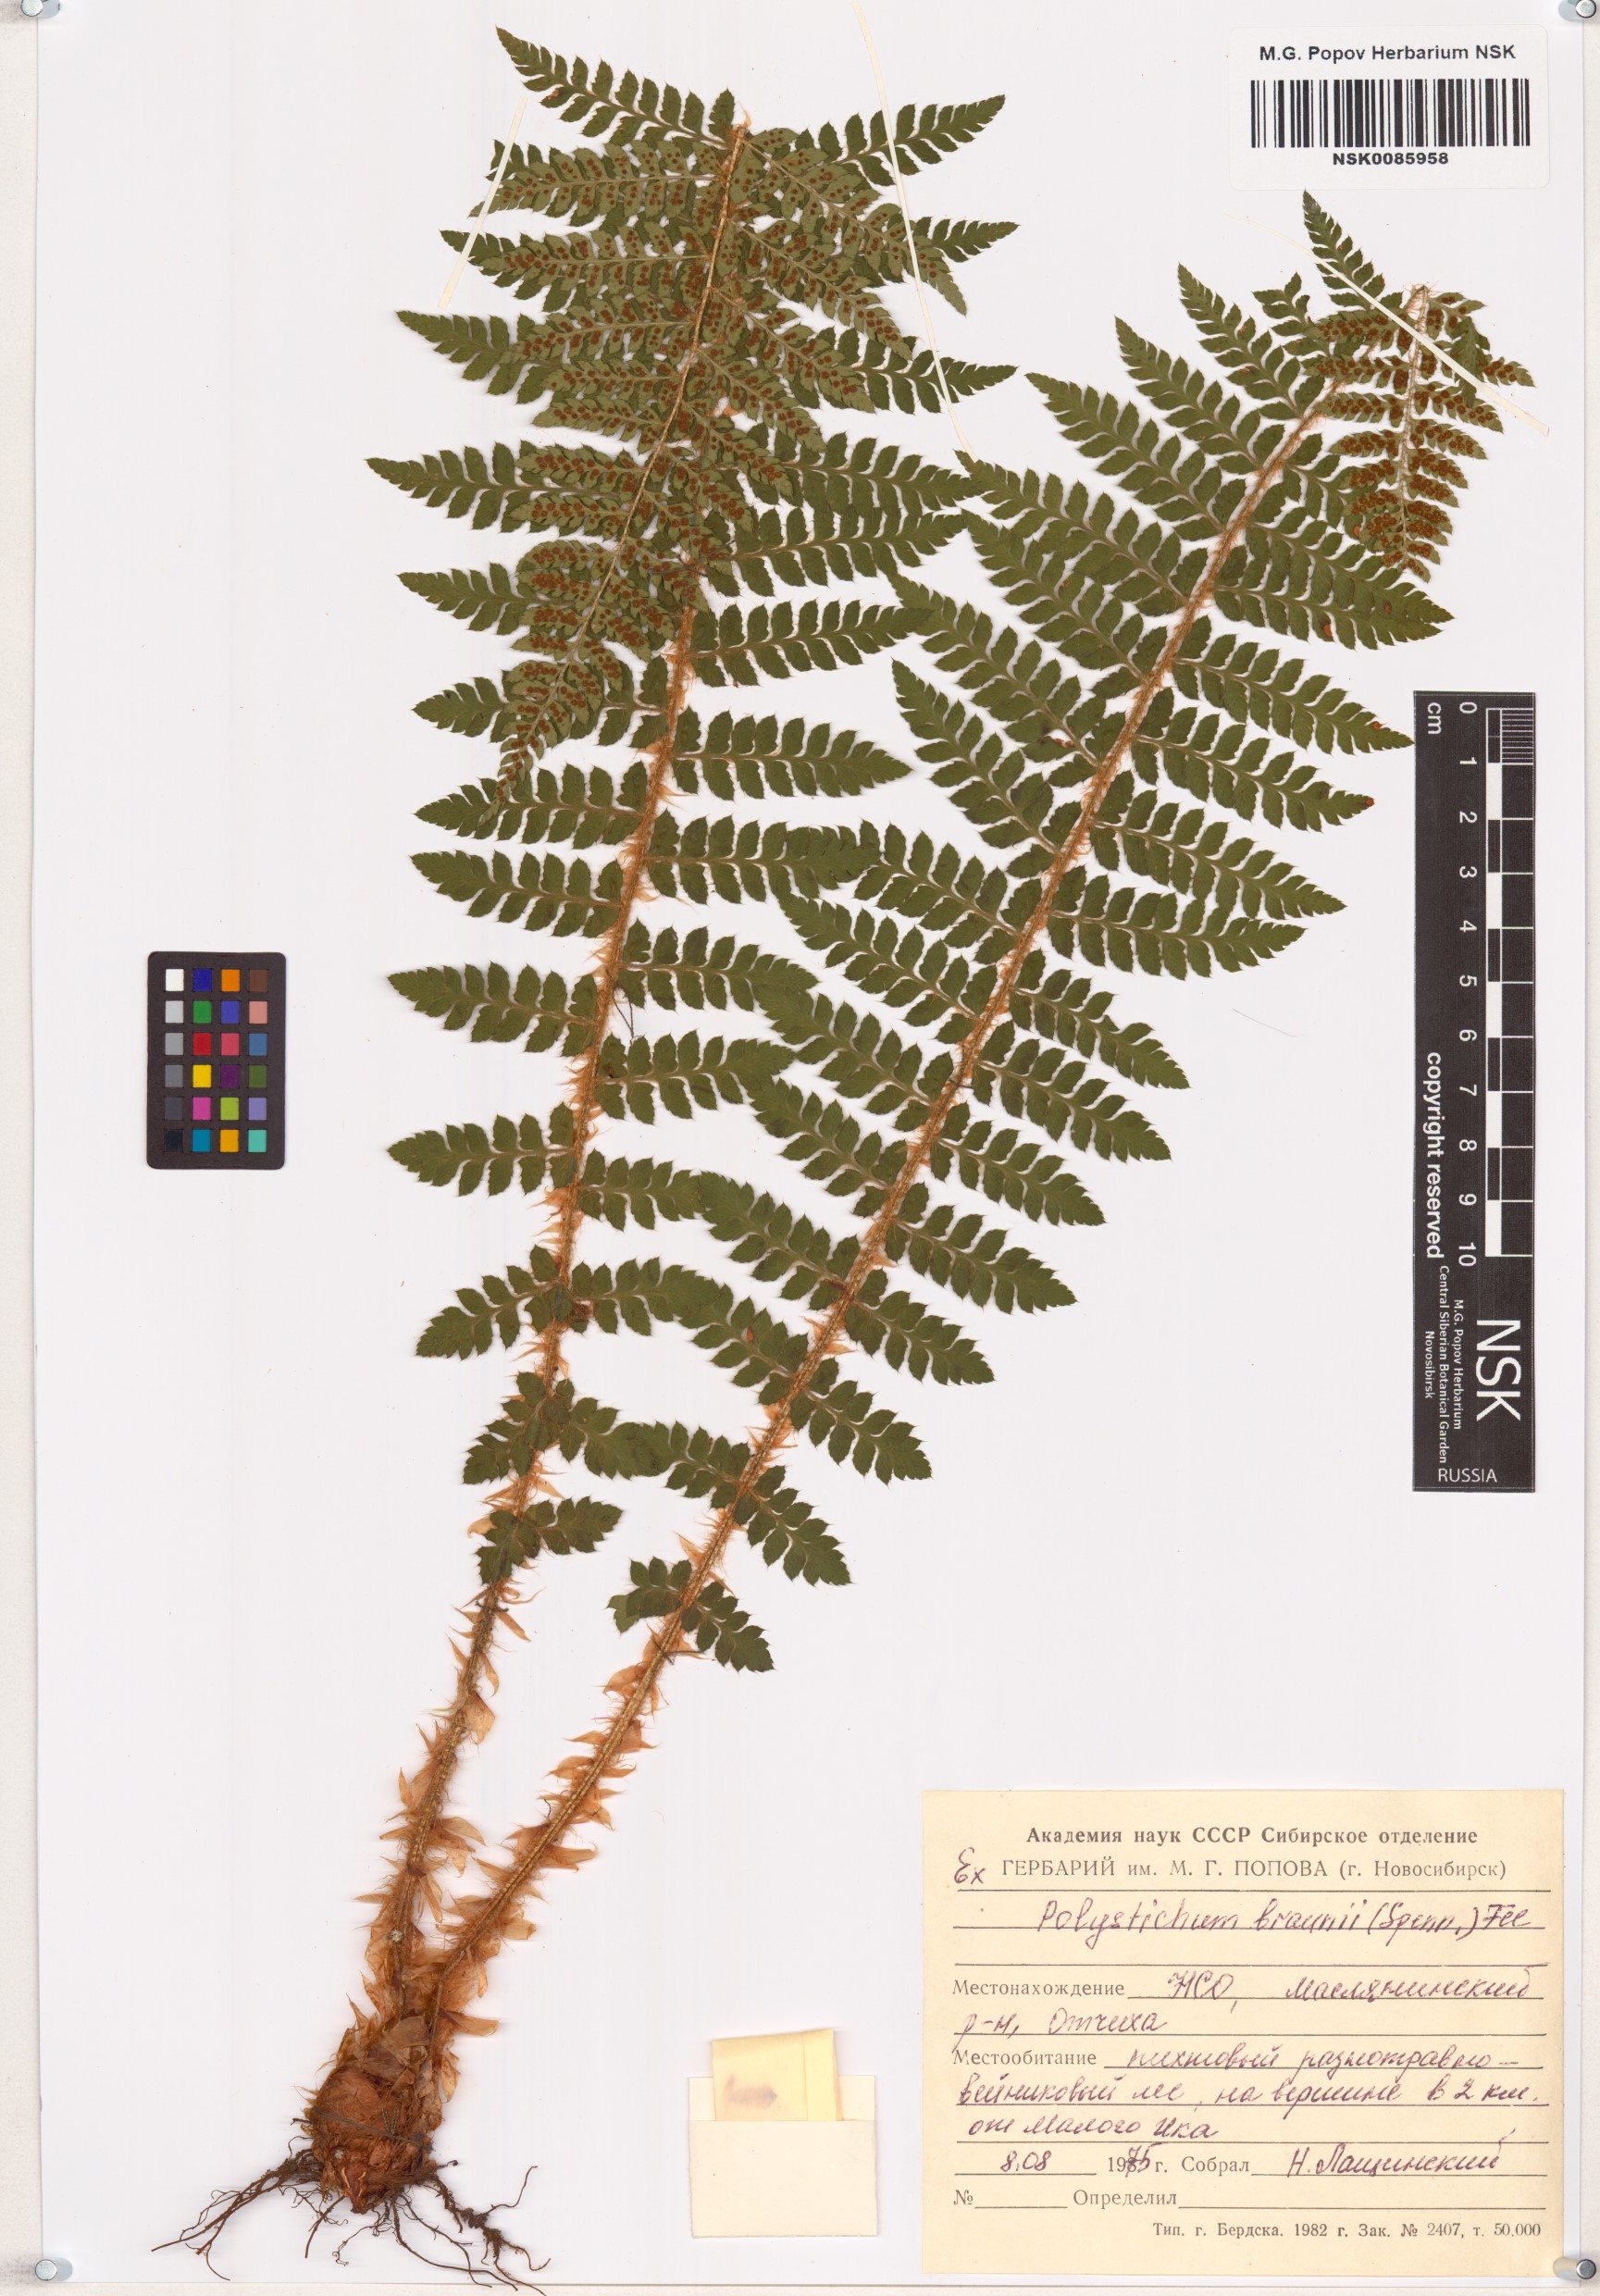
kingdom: Plantae
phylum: Tracheophyta
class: Polypodiopsida
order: Polypodiales
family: Dryopteridaceae
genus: Polystichum
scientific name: Polystichum braunii
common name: Braun's holly fern
